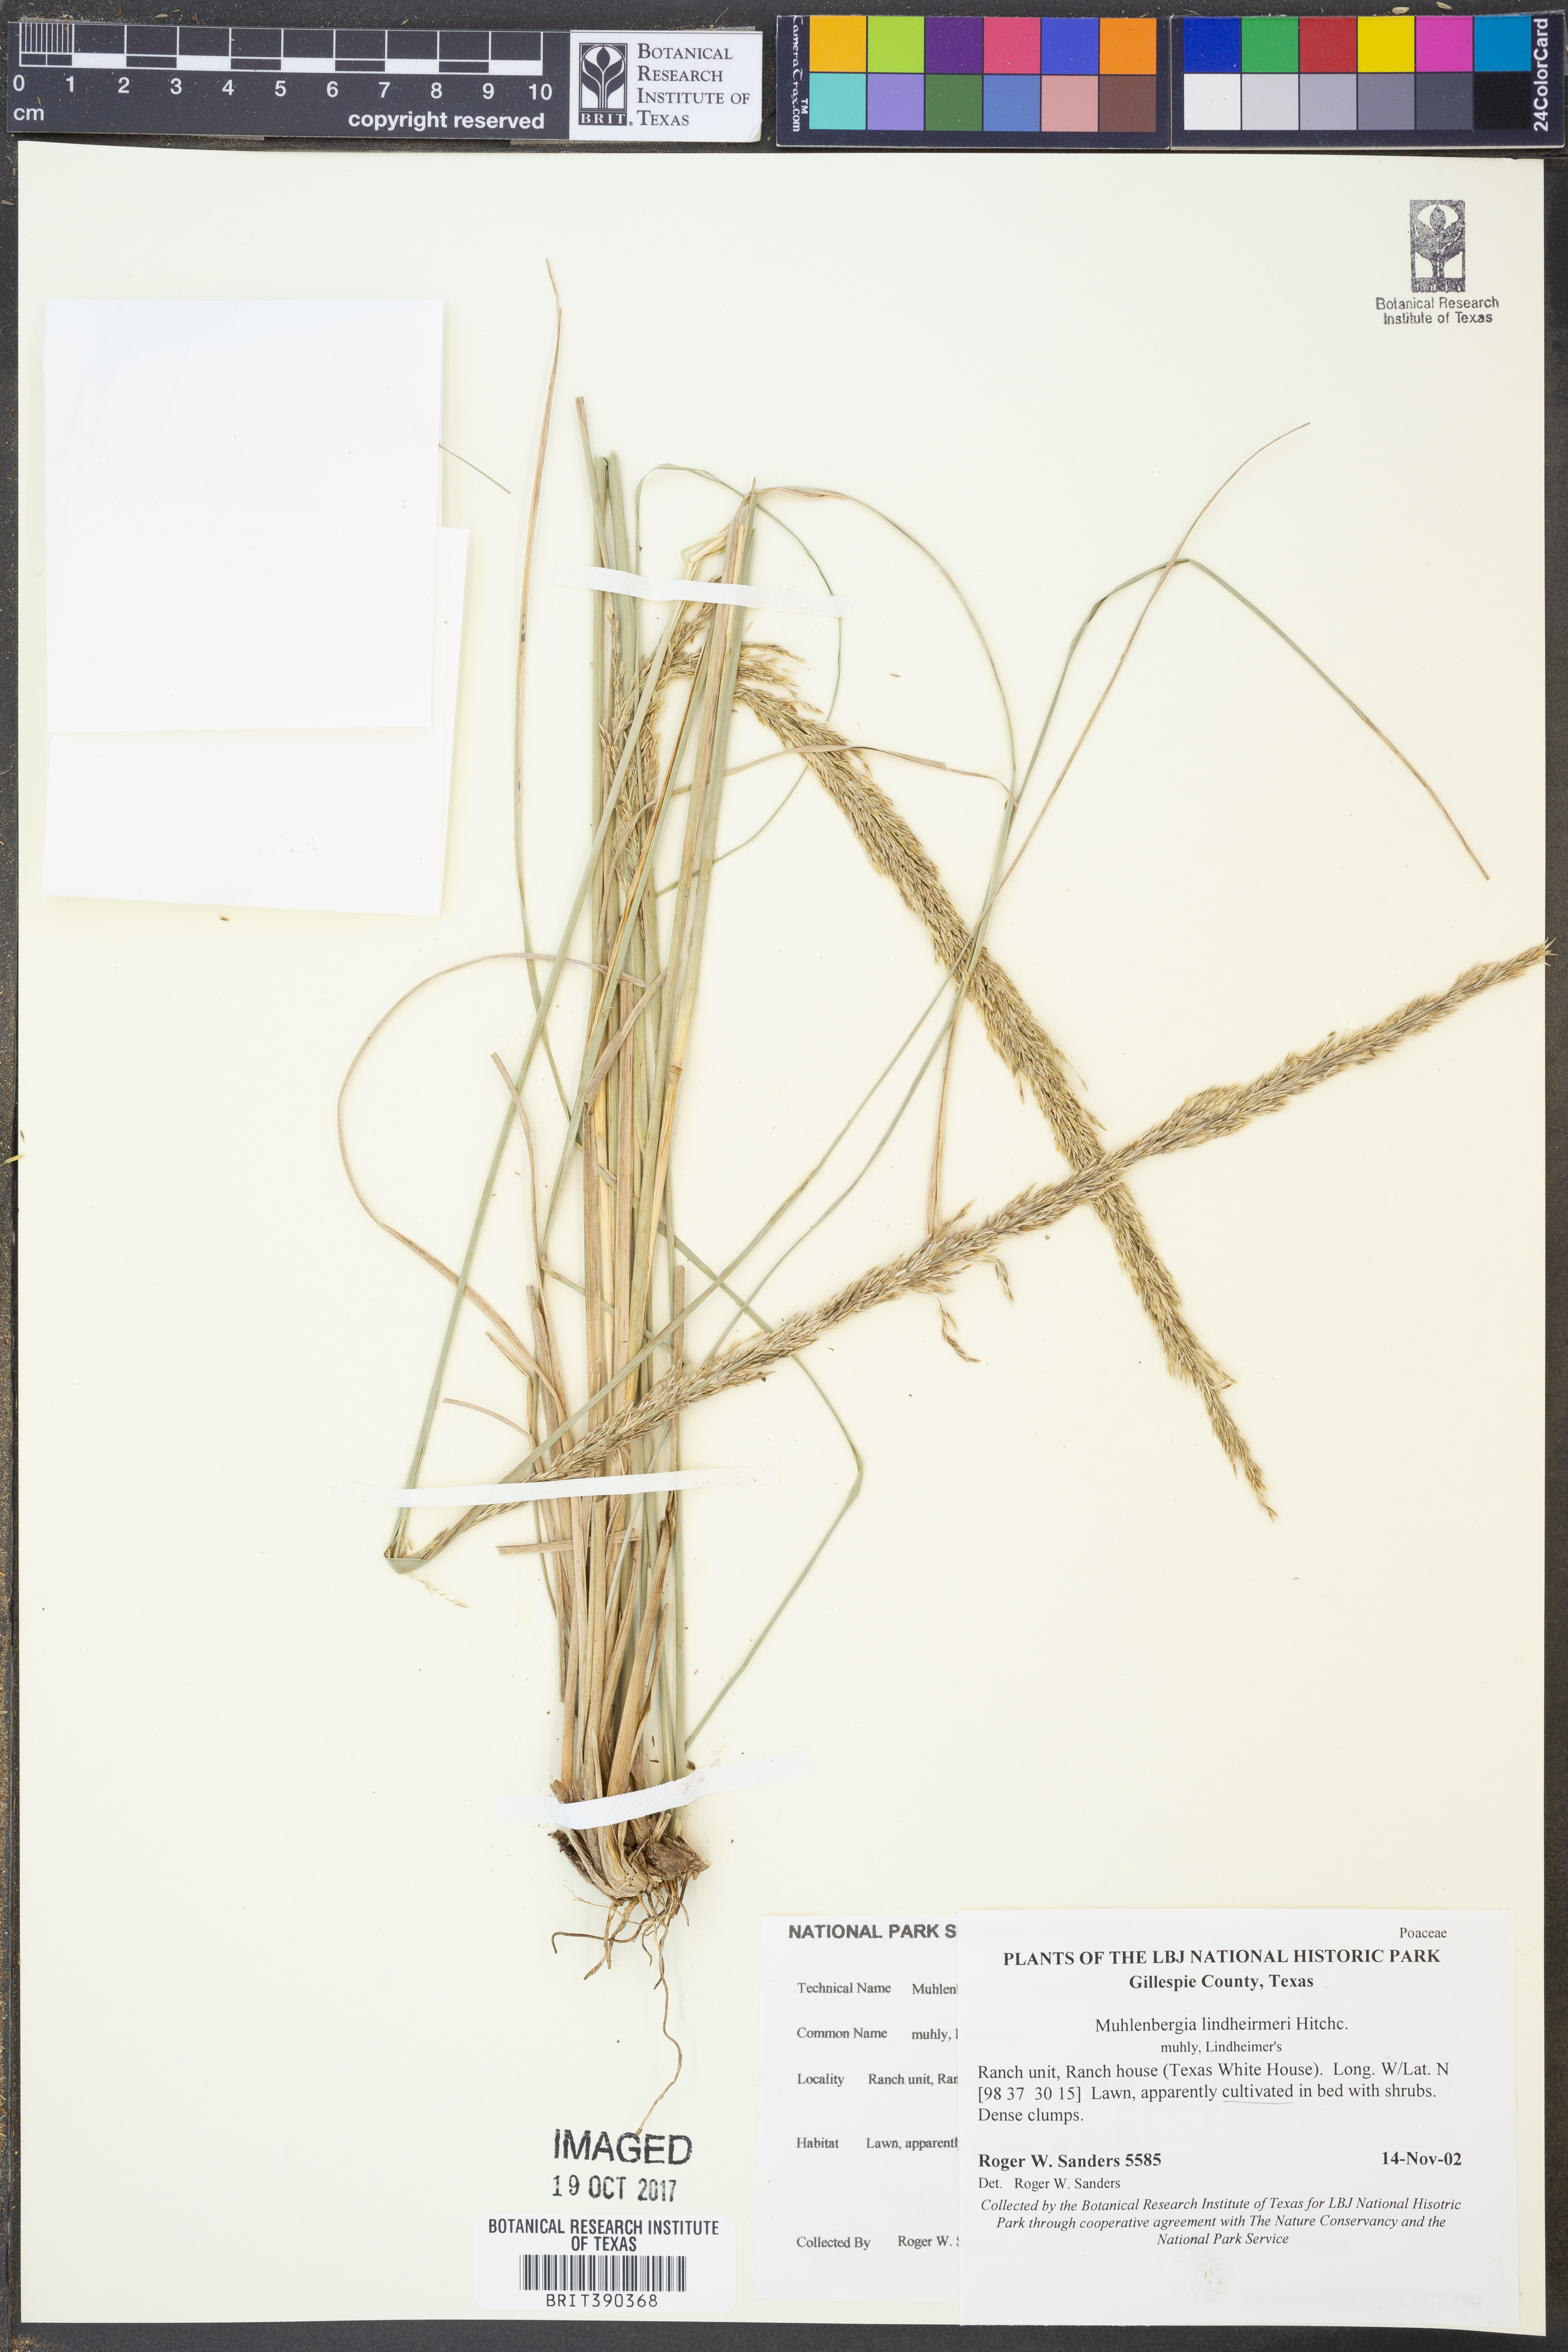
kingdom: Plantae
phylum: Tracheophyta
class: Liliopsida
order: Poales
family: Poaceae
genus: Muhlenbergia
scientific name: Muhlenbergia lindheimeri
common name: Lindheimer's muhly
